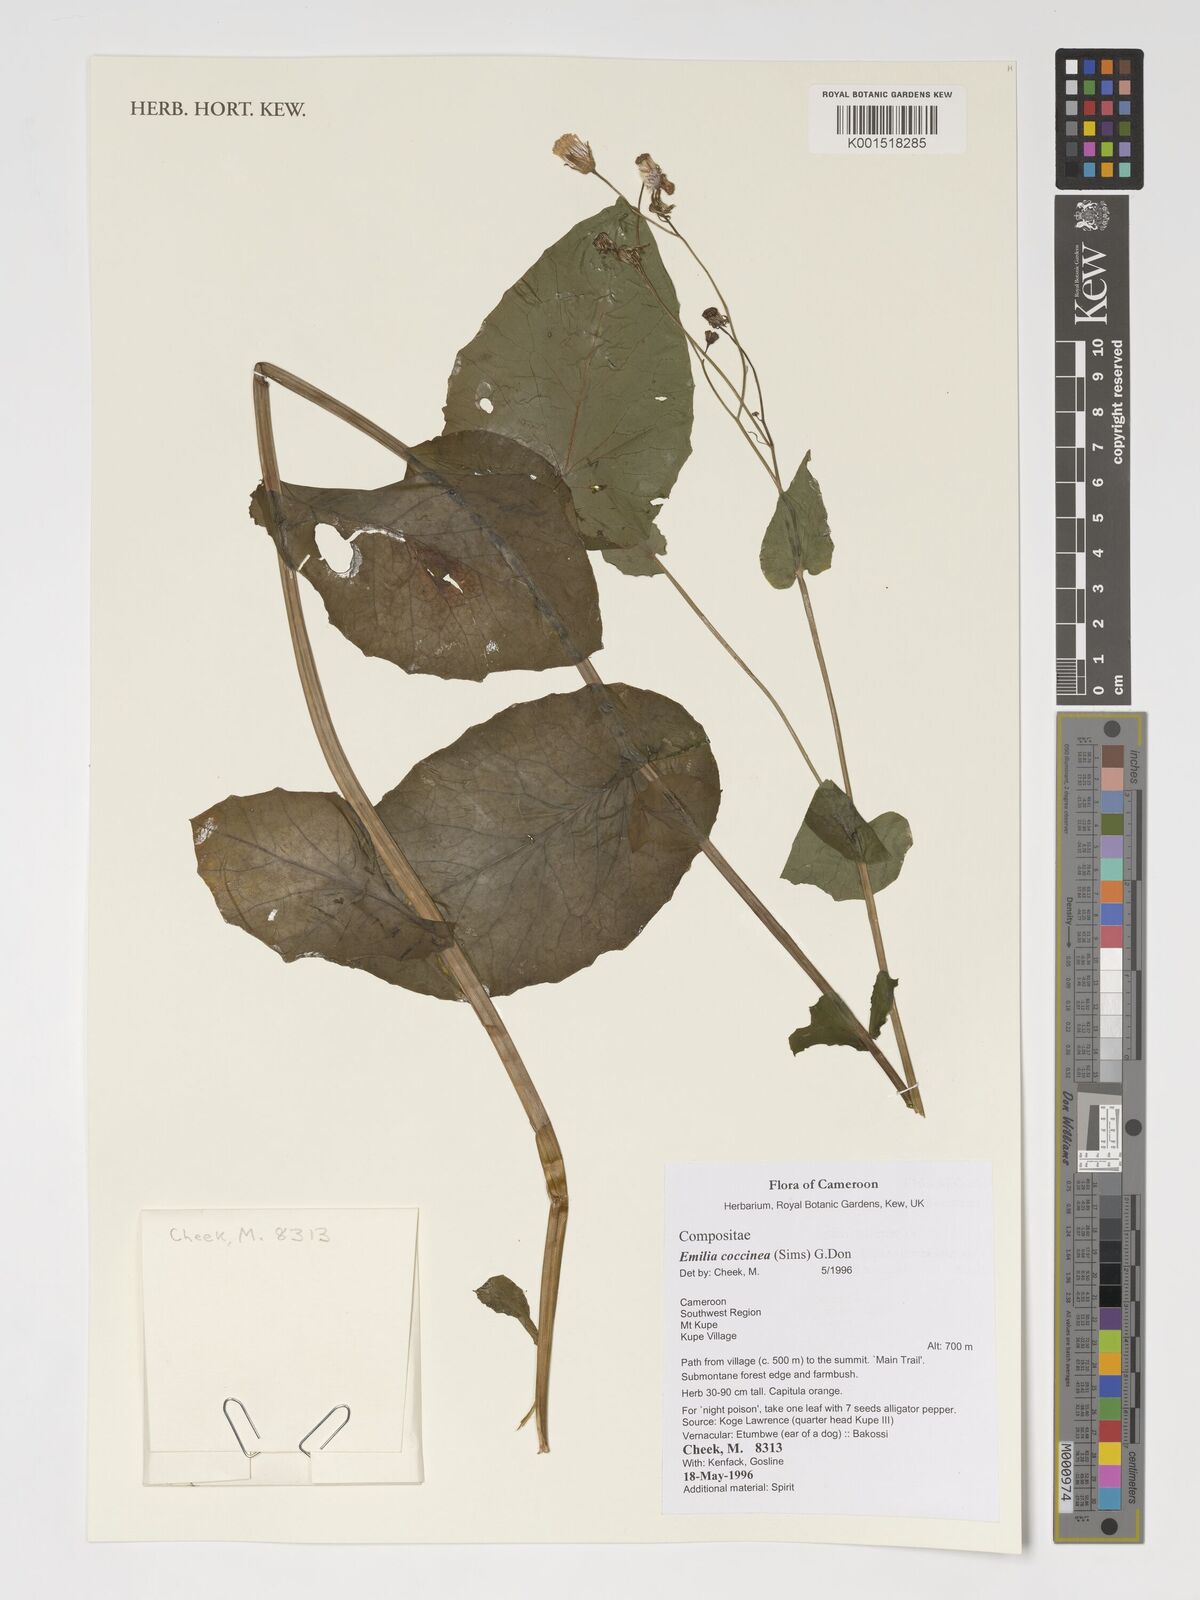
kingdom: Plantae
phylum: Tracheophyta
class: Magnoliopsida
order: Asterales
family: Asteraceae
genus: Emilia
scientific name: Emilia coccinea
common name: Scarlet tasselflower
